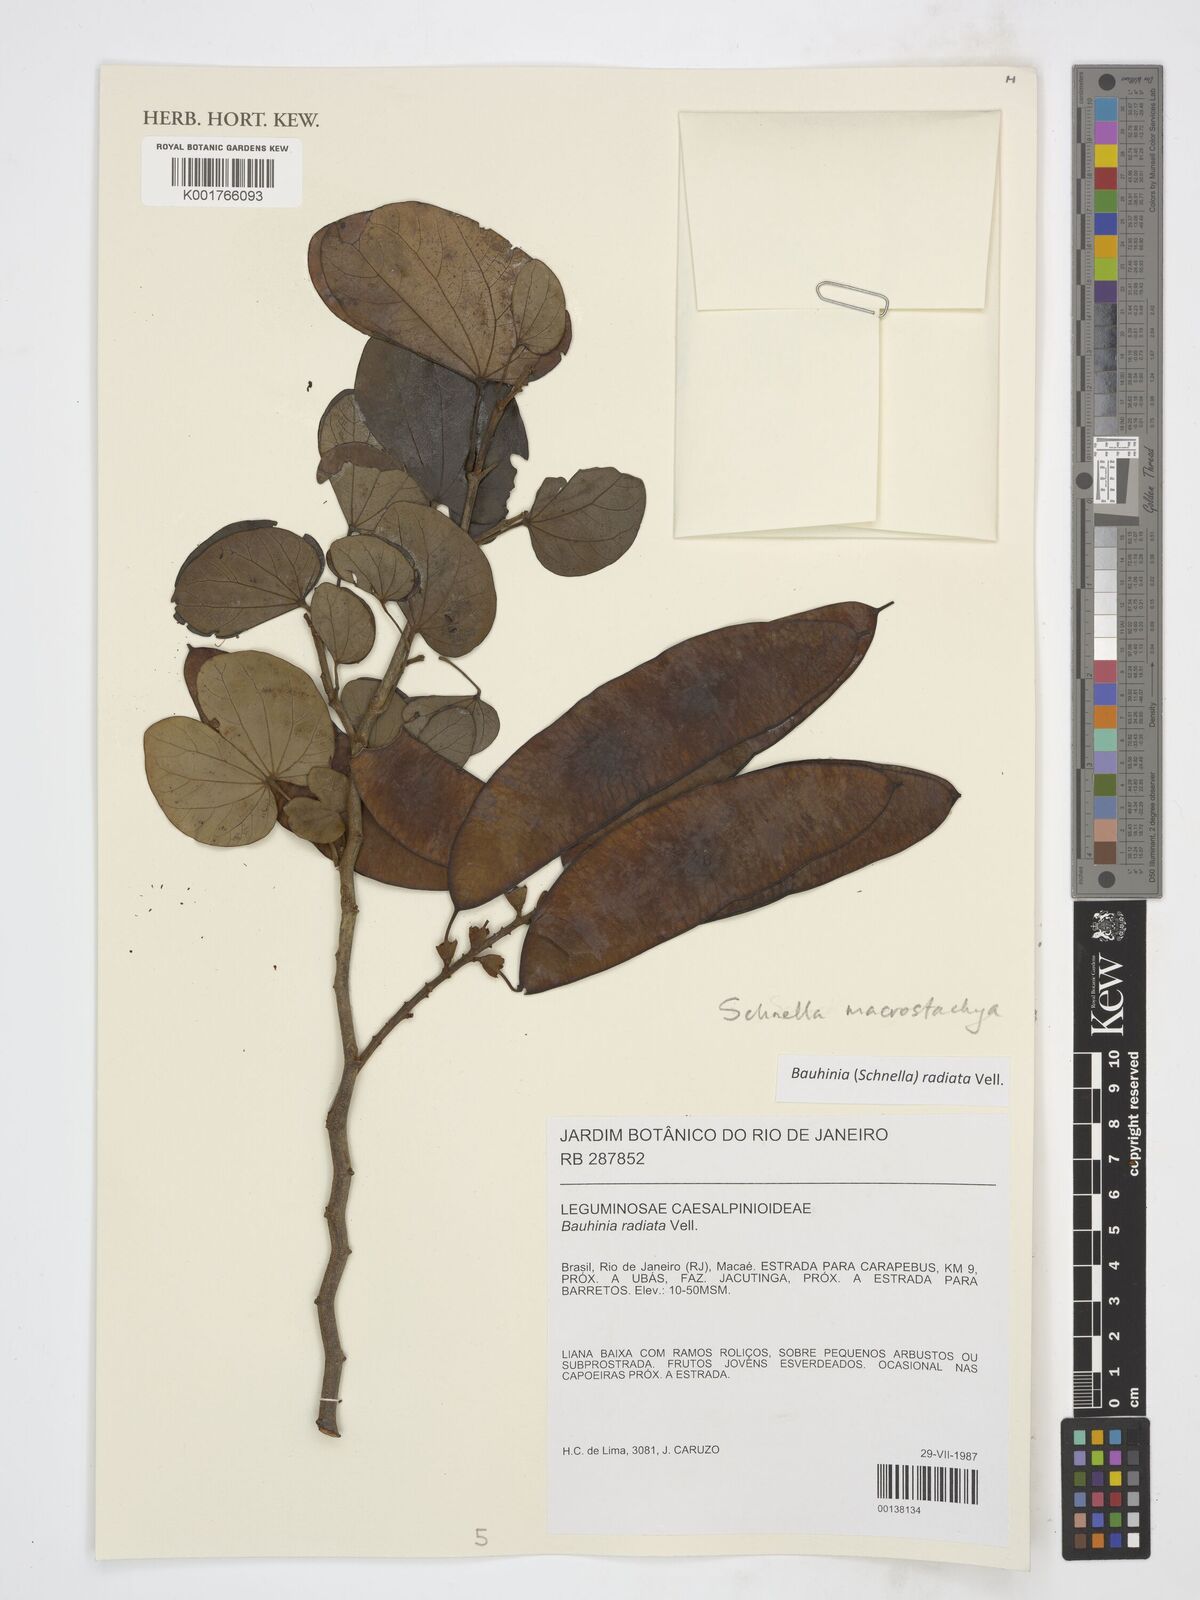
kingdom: Plantae
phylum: Tracheophyta
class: Magnoliopsida
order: Fabales
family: Fabaceae
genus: Schnella
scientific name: Schnella macrostachya
